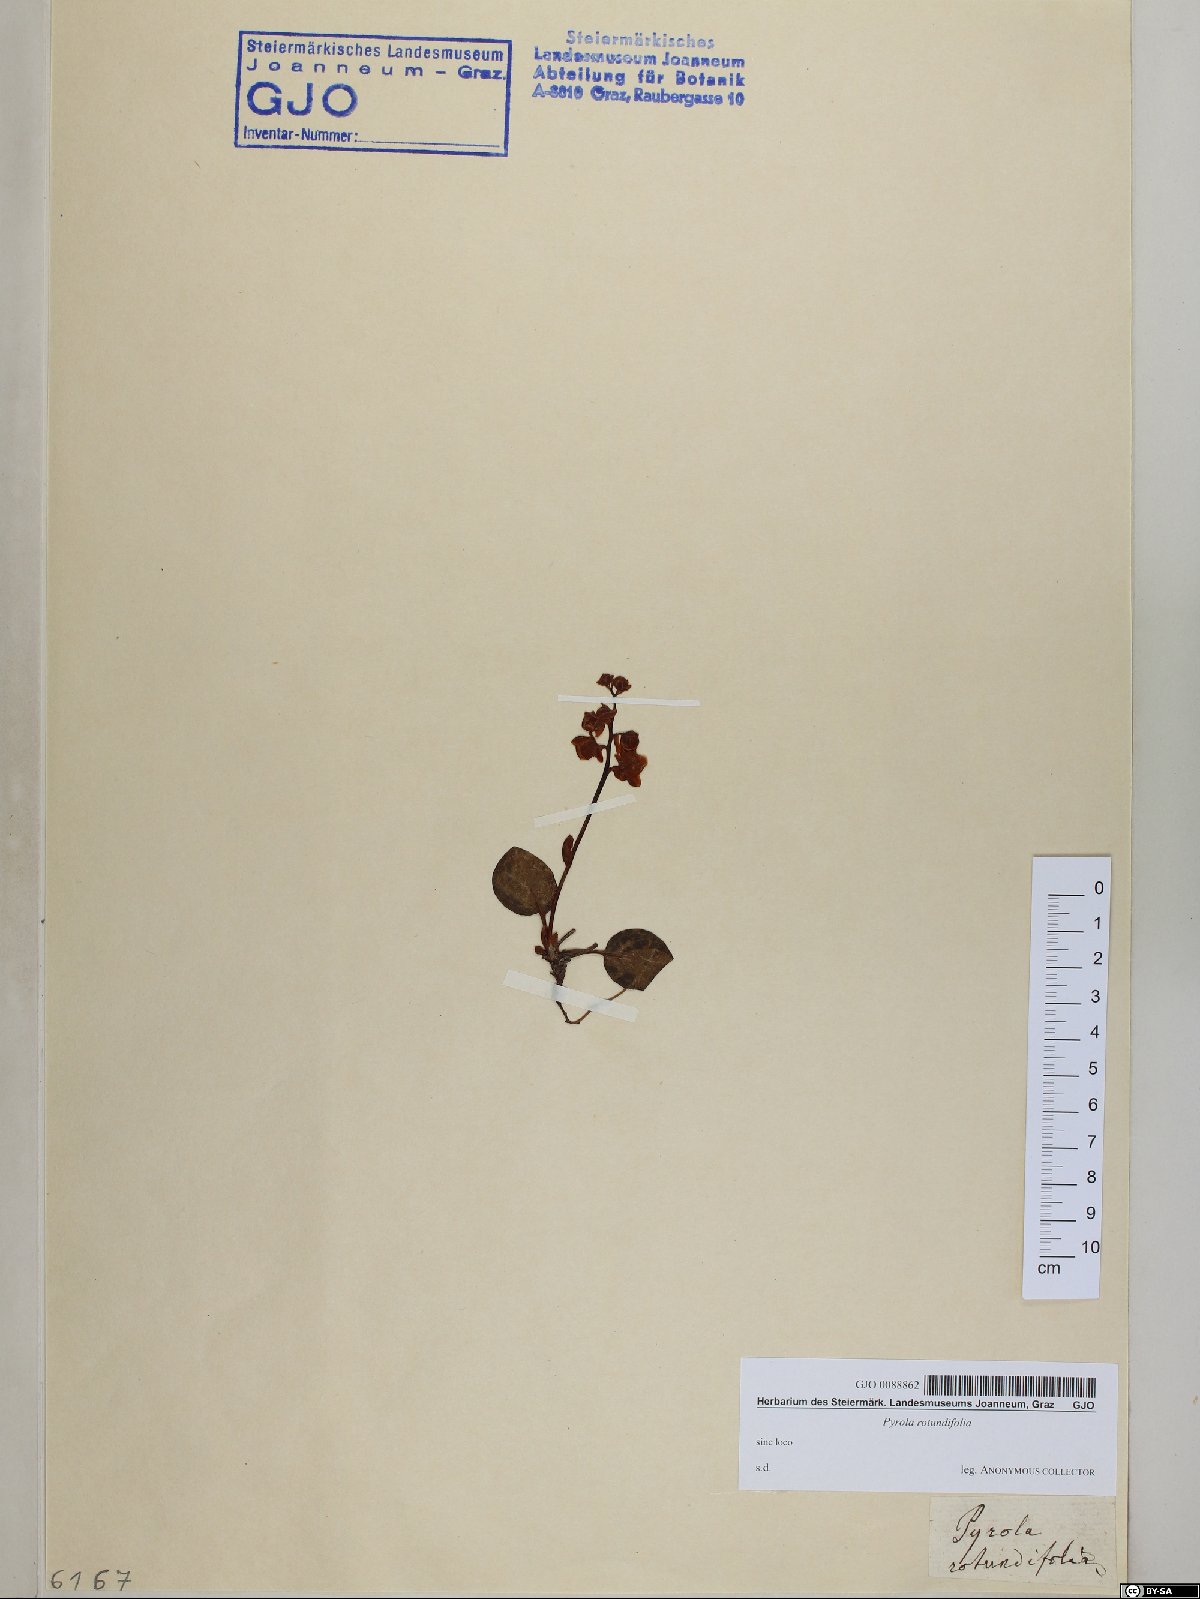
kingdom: Plantae
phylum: Tracheophyta
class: Magnoliopsida
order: Ericales
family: Ericaceae
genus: Pyrola
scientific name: Pyrola rotundifolia
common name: Round-leaved wintergreen
